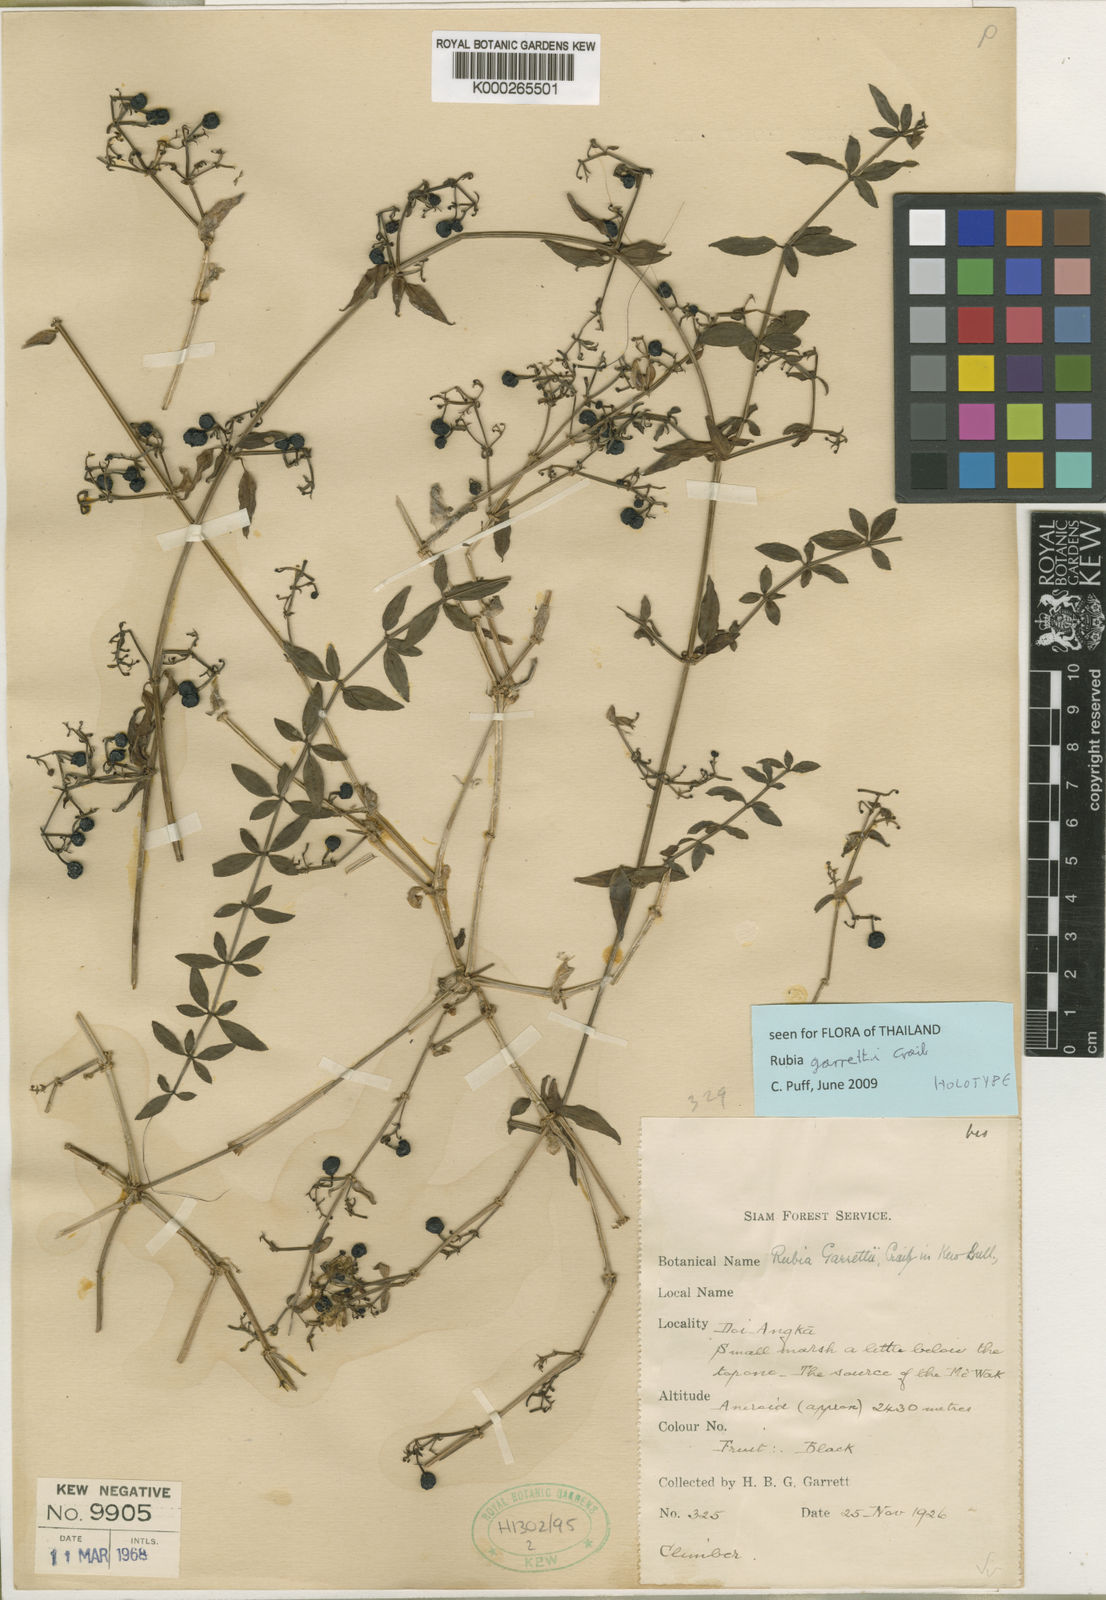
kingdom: Plantae
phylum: Tracheophyta
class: Magnoliopsida
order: Gentianales
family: Rubiaceae
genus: Rubia
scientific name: Rubia garrettii
